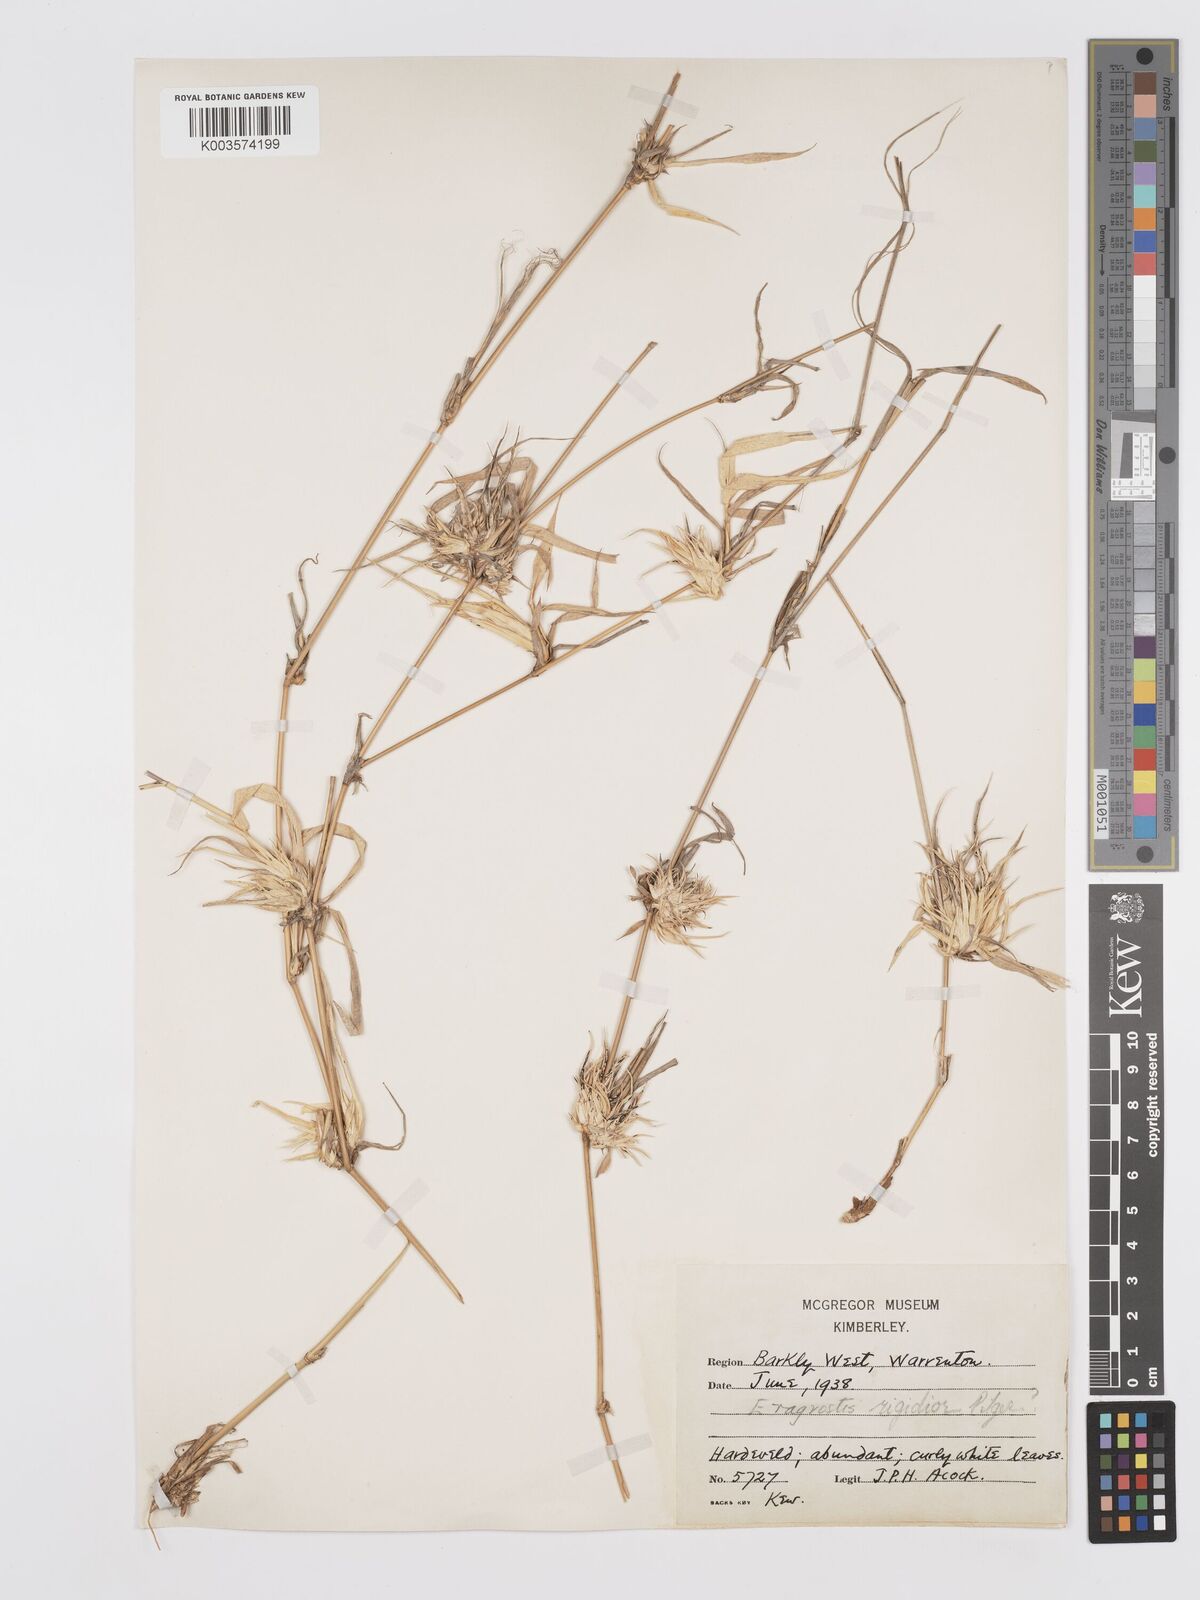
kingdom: Plantae
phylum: Tracheophyta
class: Liliopsida
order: Poales
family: Poaceae
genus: Eragrostis
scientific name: Eragrostis cylindriflora
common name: Cylinderflower lovegrass
